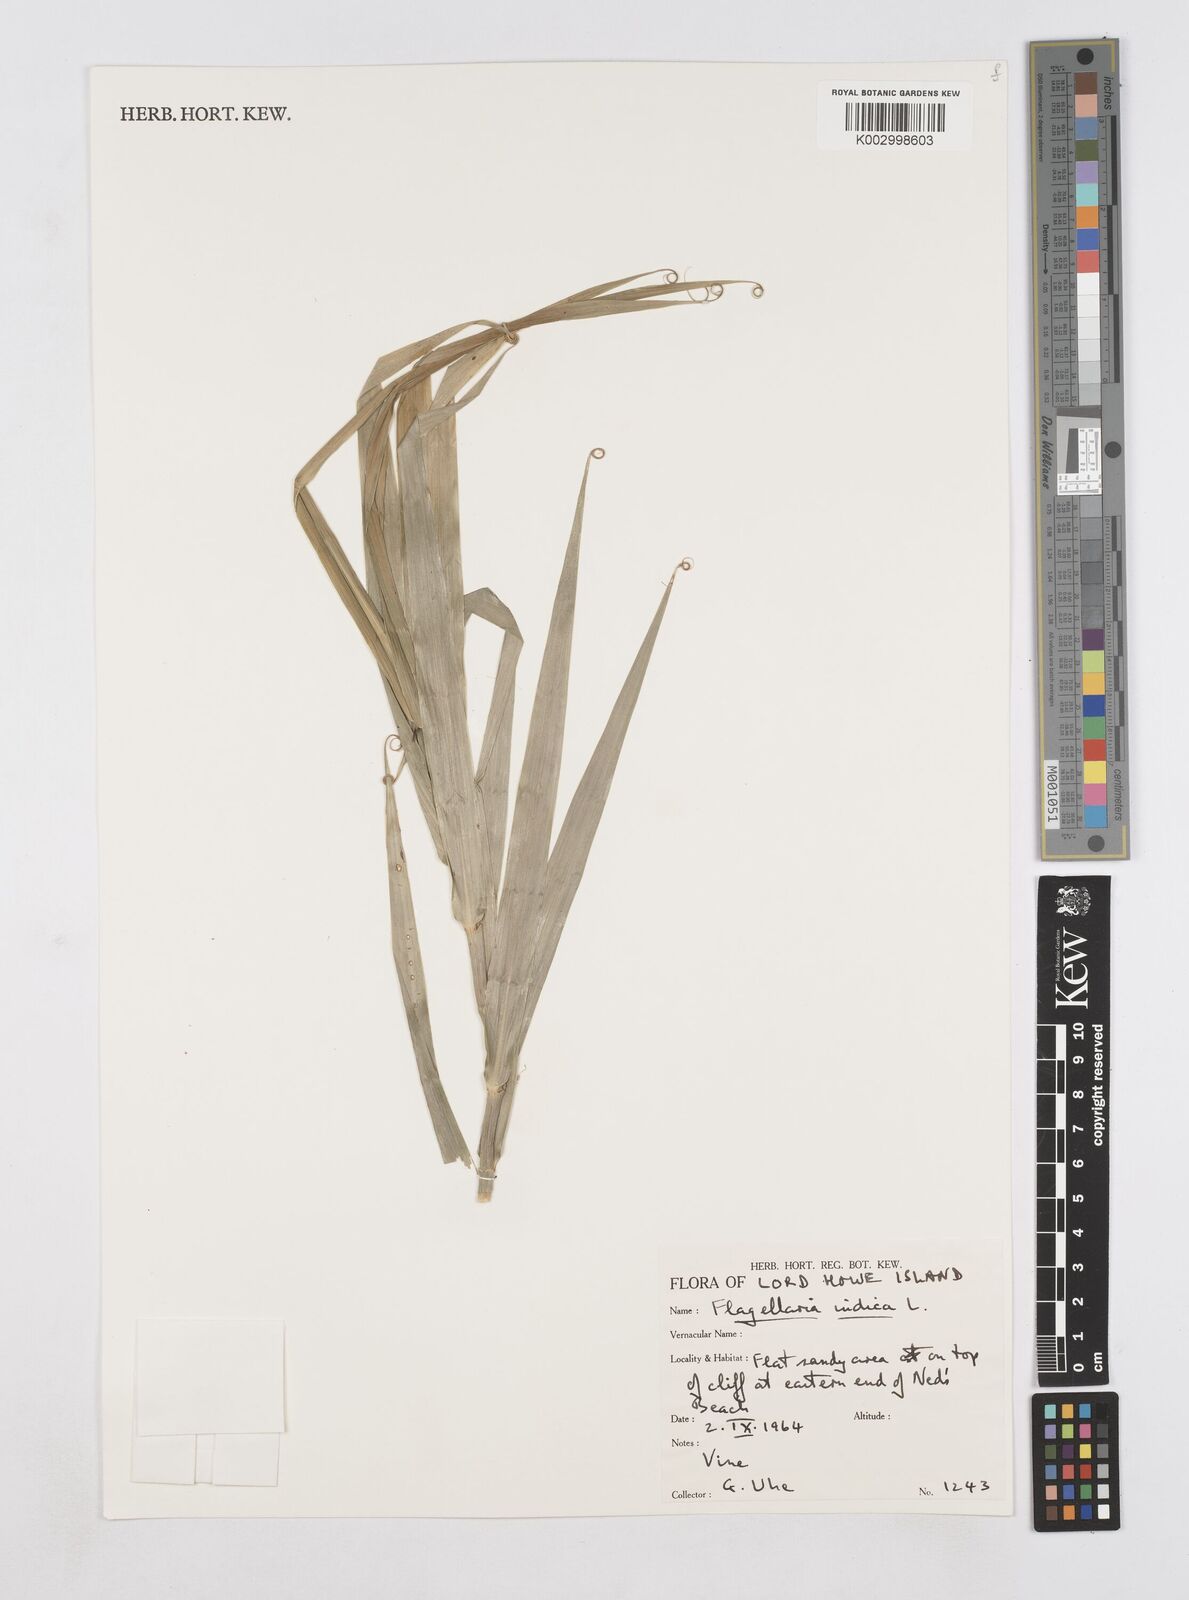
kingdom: Plantae
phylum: Tracheophyta
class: Liliopsida
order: Poales
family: Flagellariaceae
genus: Flagellaria
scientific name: Flagellaria indica
